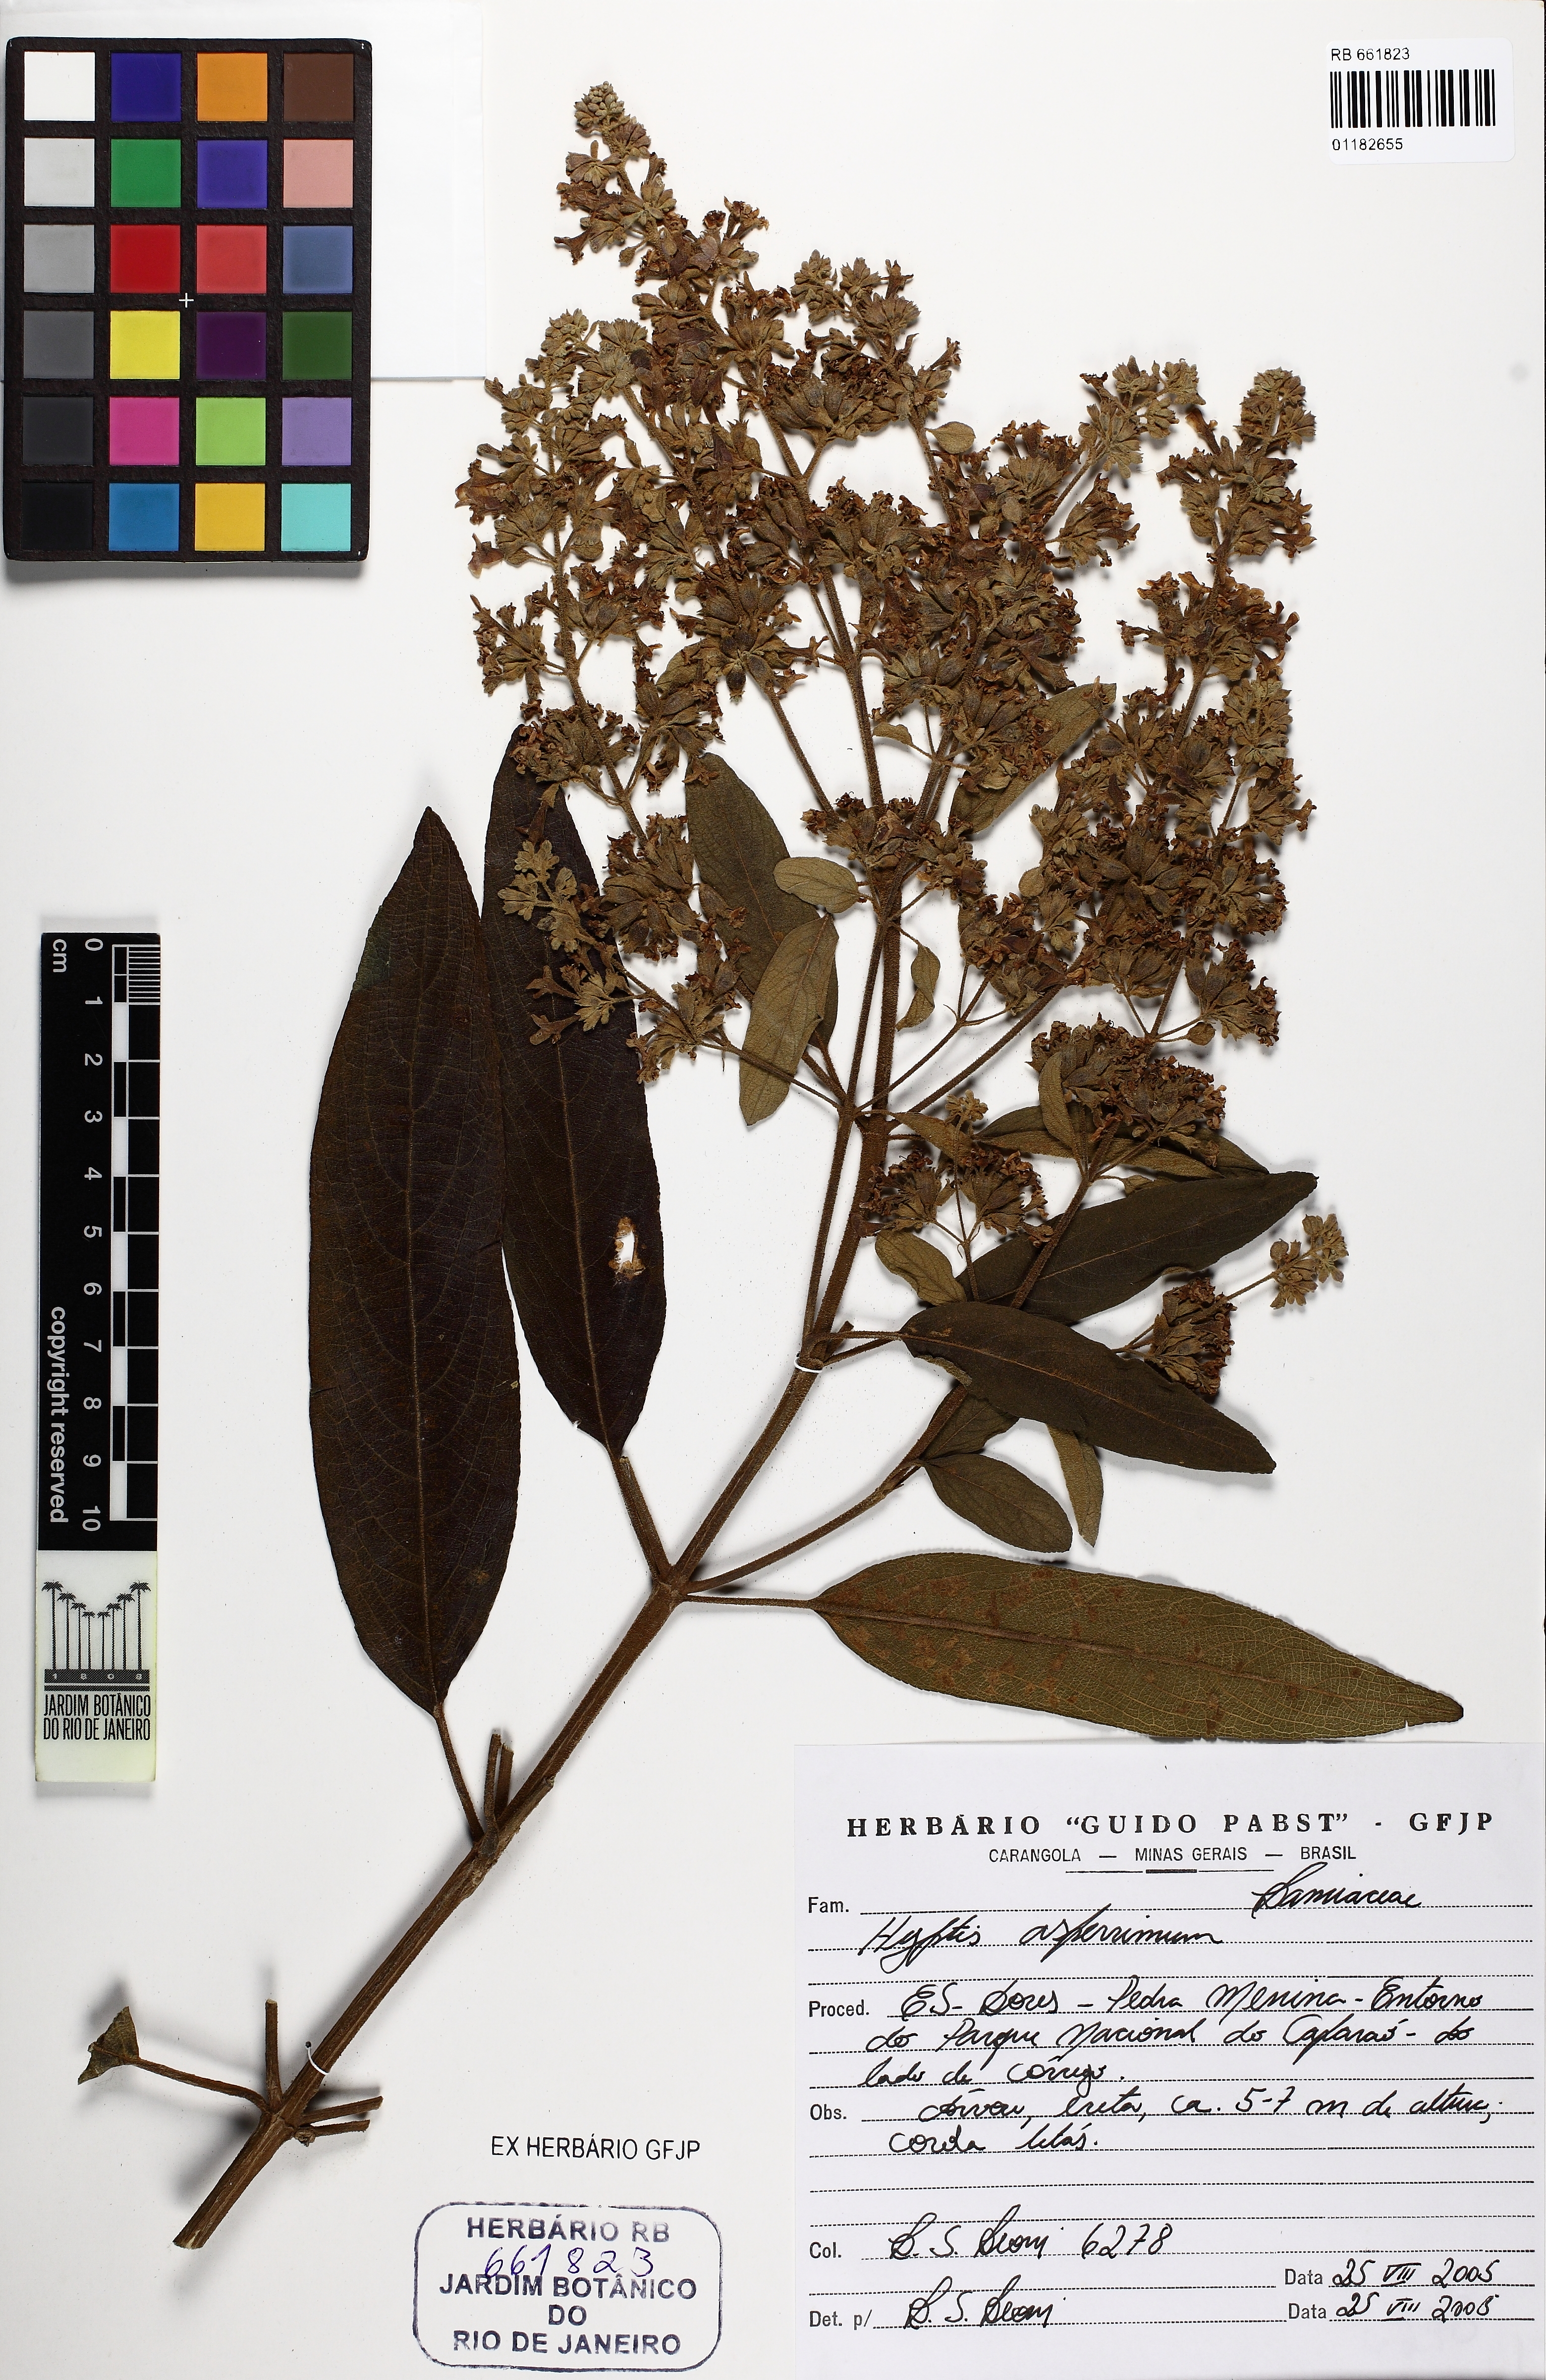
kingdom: Plantae
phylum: Tracheophyta
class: Magnoliopsida
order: Lamiales
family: Lamiaceae
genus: Hyptidendron
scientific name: Hyptidendron asperrimum
